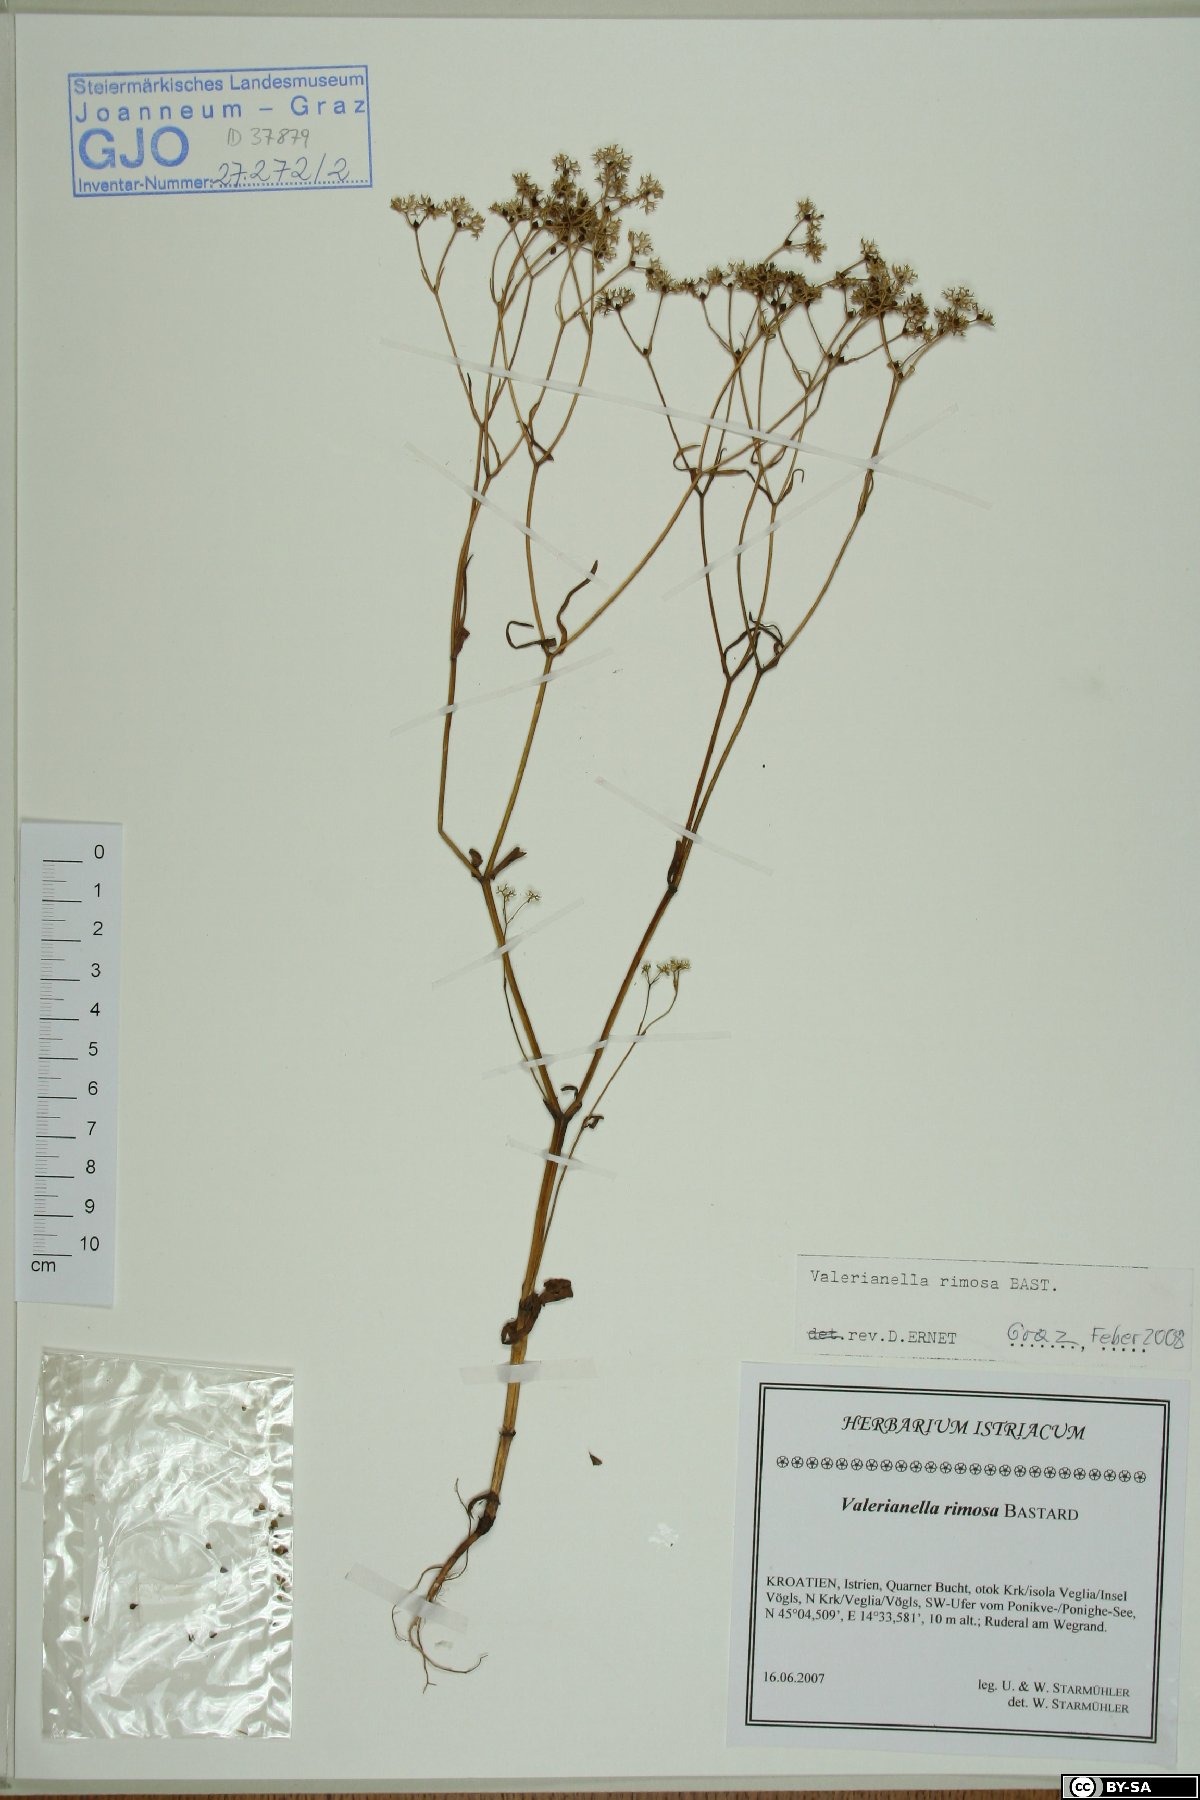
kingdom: Plantae
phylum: Tracheophyta
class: Magnoliopsida
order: Dipsacales
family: Caprifoliaceae
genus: Valerianella
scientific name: Valerianella rimosa
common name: Broad-fruited cornsalad
